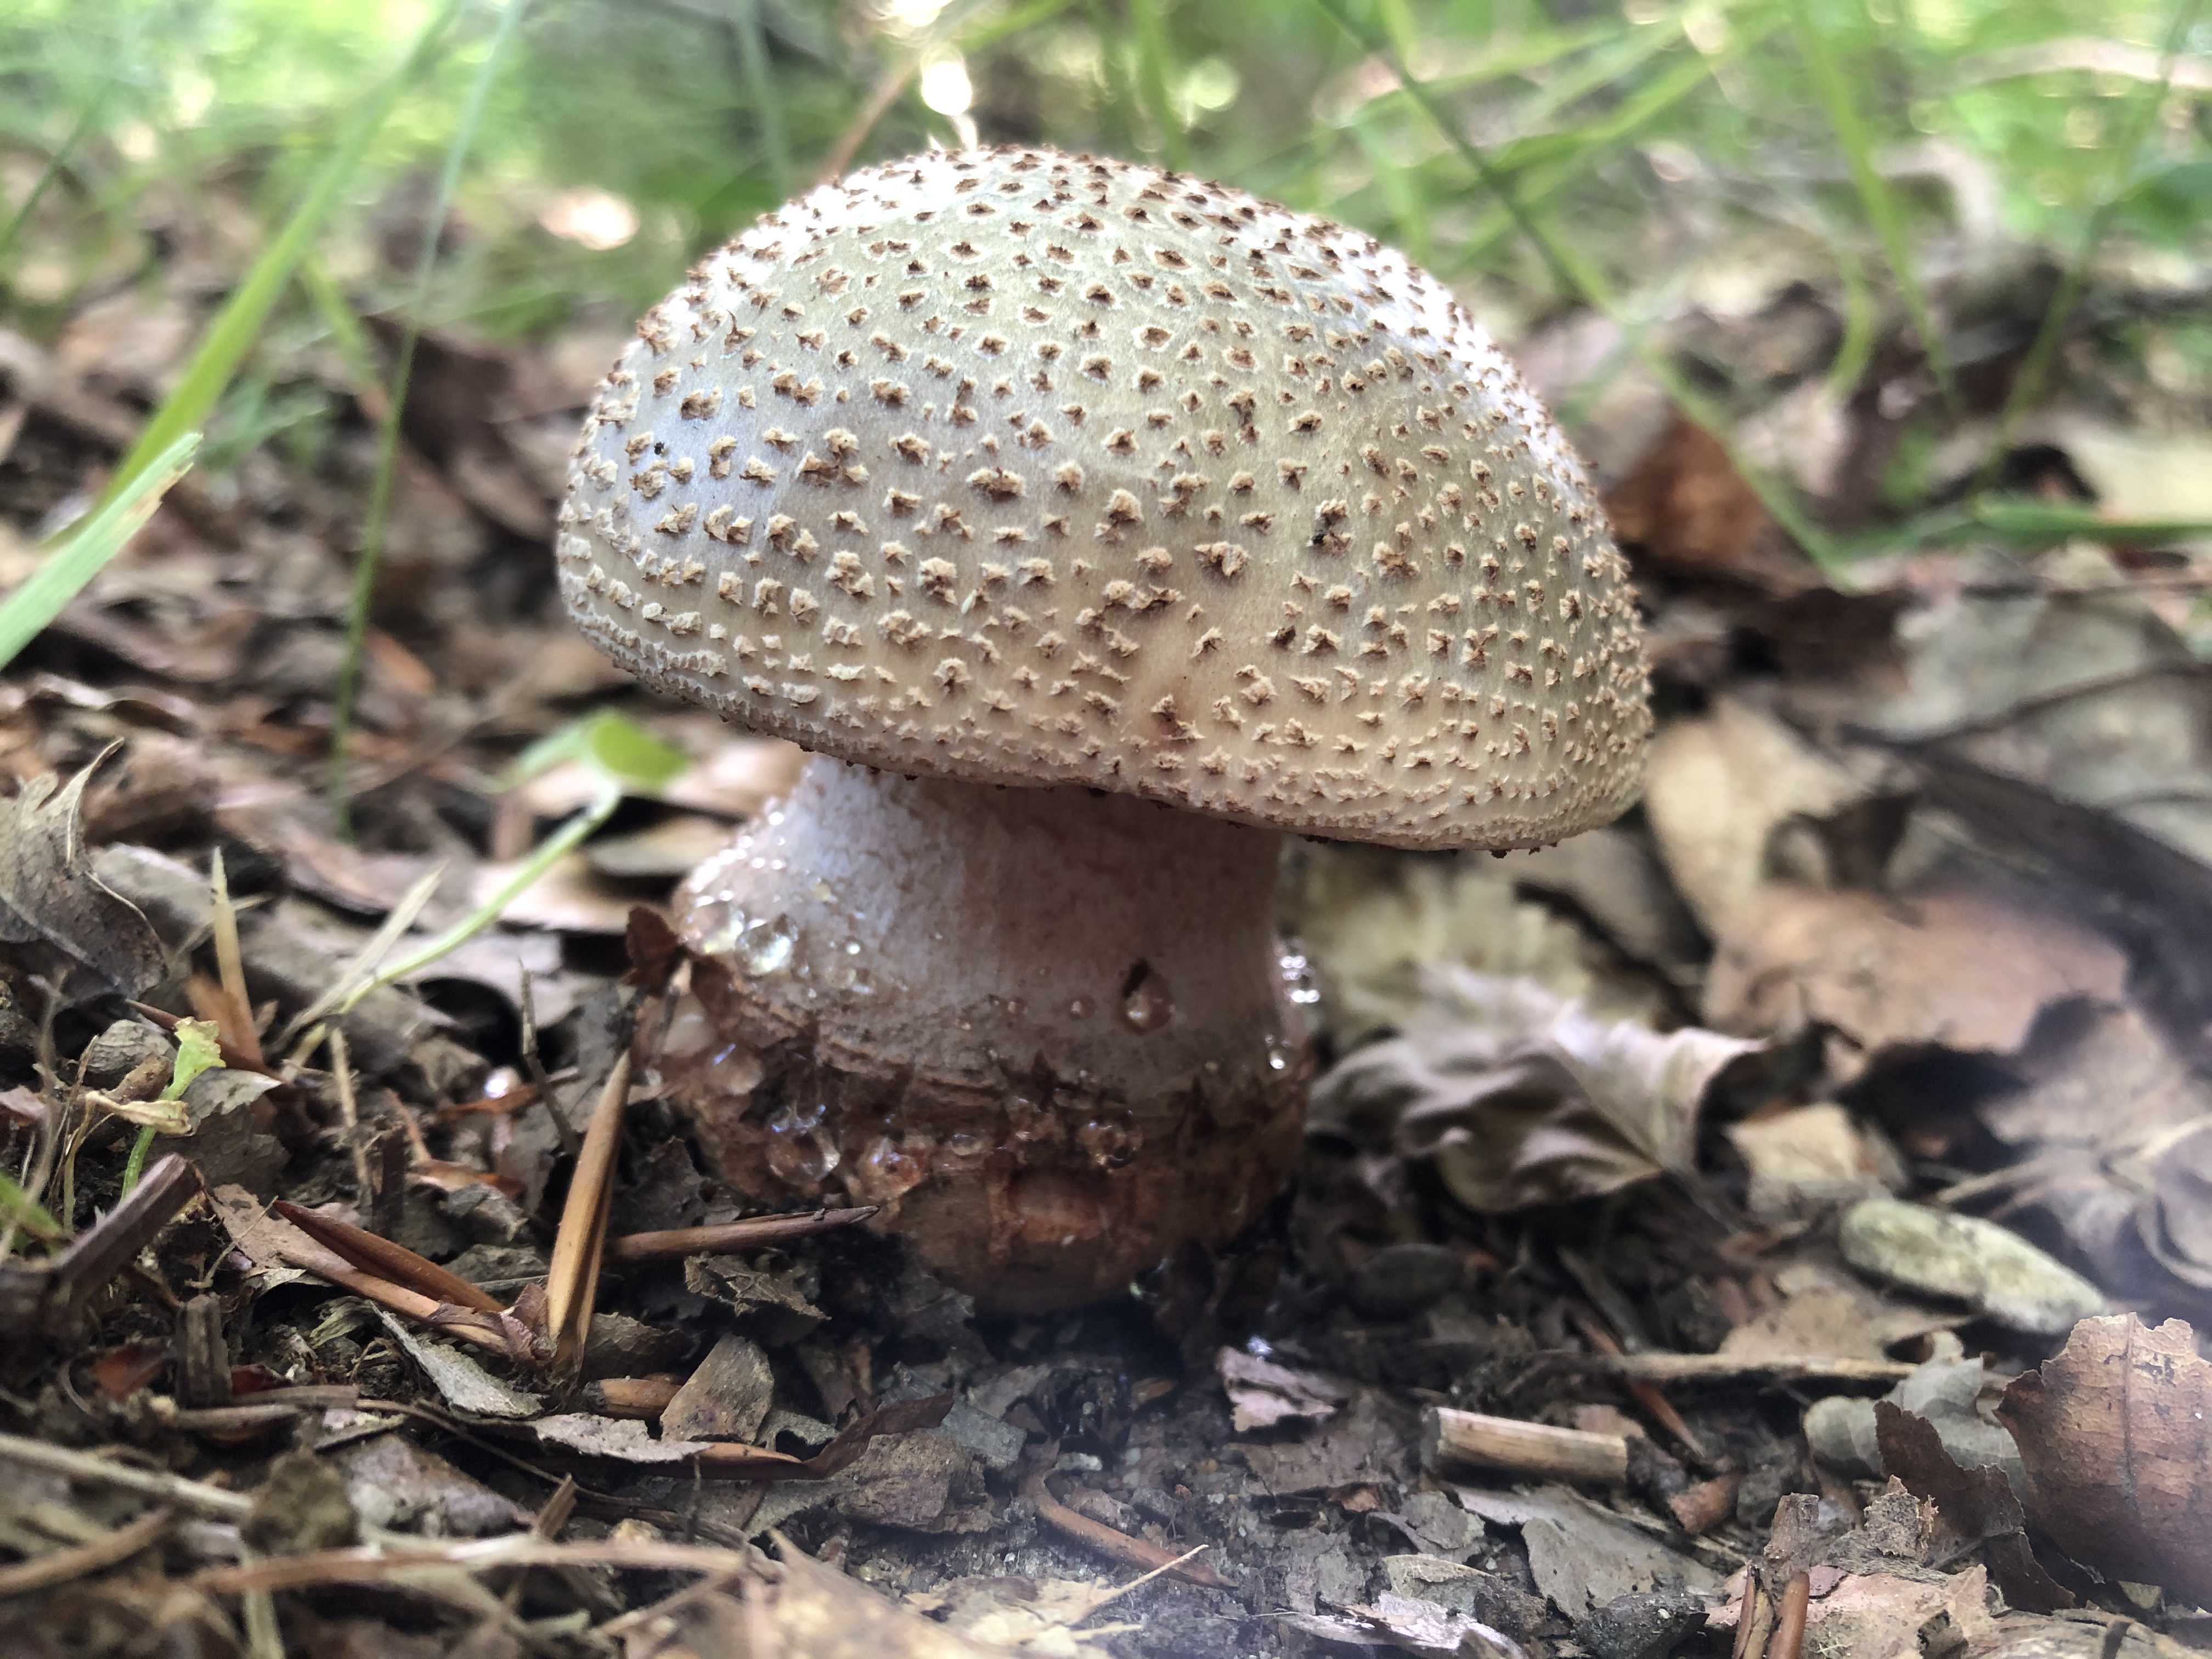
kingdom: Fungi
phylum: Basidiomycota
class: Agaricomycetes
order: Agaricales
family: Amanitaceae
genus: Amanita
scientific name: Amanita rubescens
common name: rødmende fluesvamp
